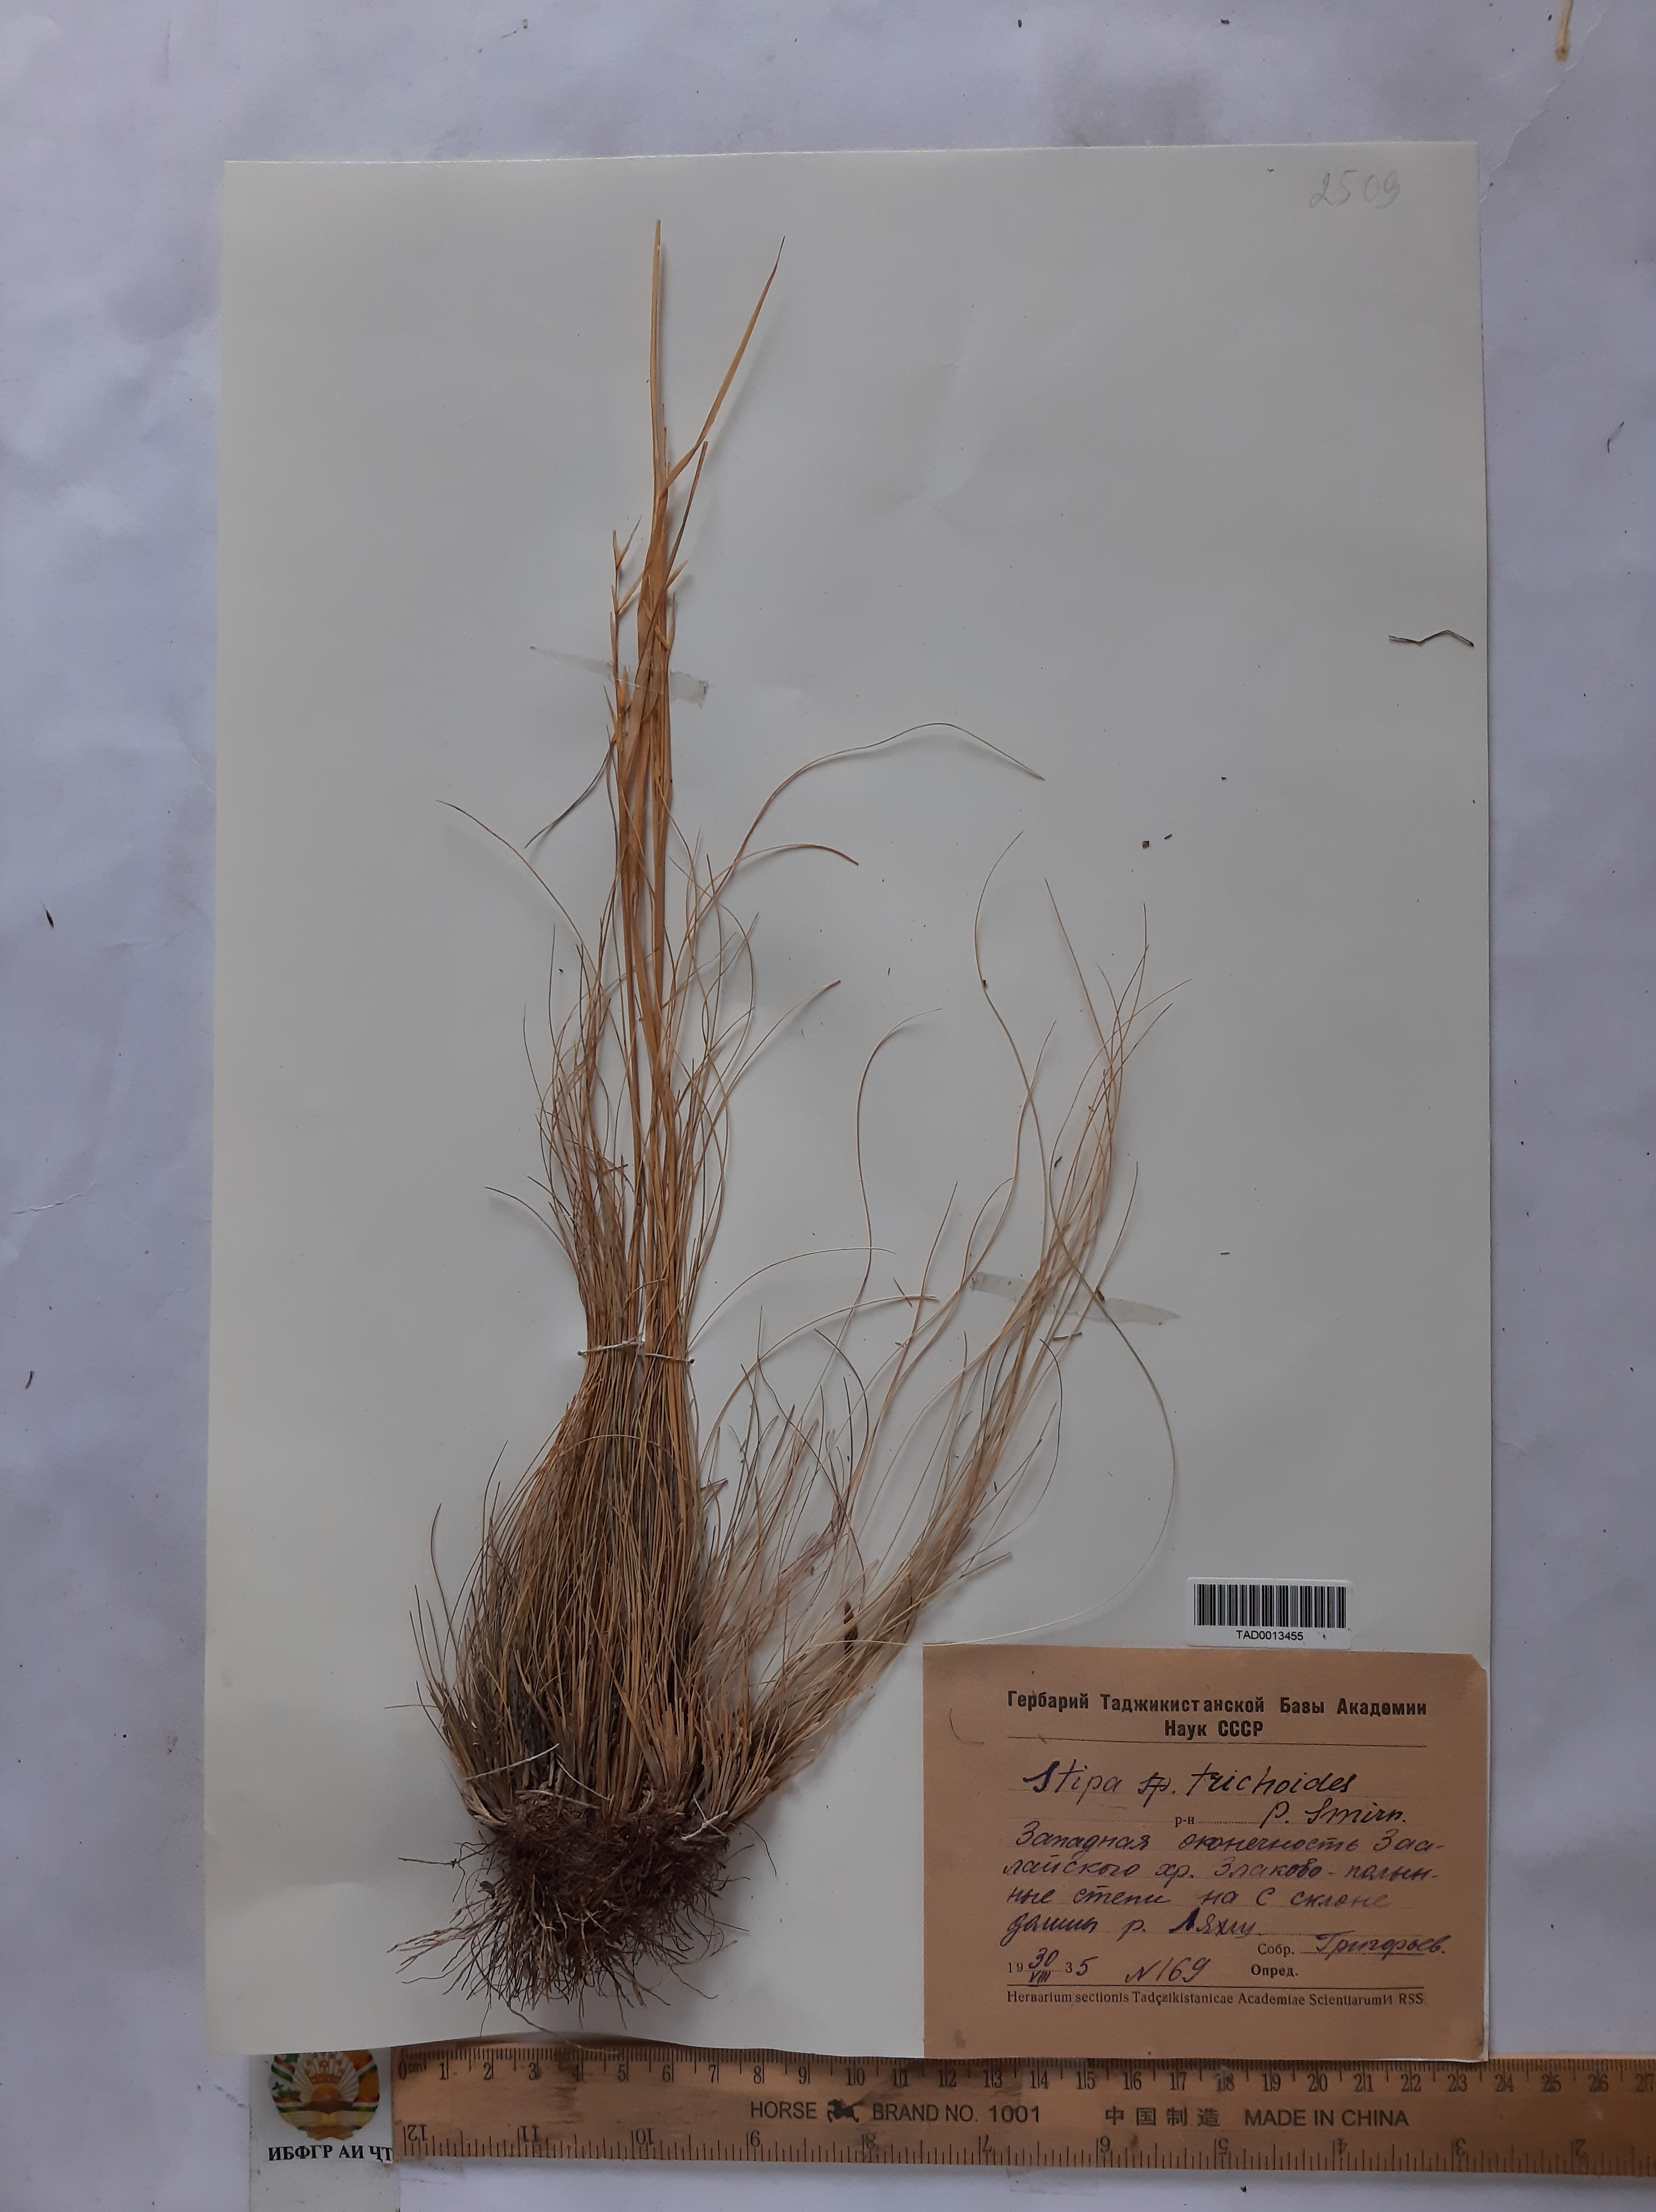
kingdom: Plantae
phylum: Tracheophyta
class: Liliopsida
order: Poales
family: Poaceae
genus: Stipa
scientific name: Stipa trichoides
